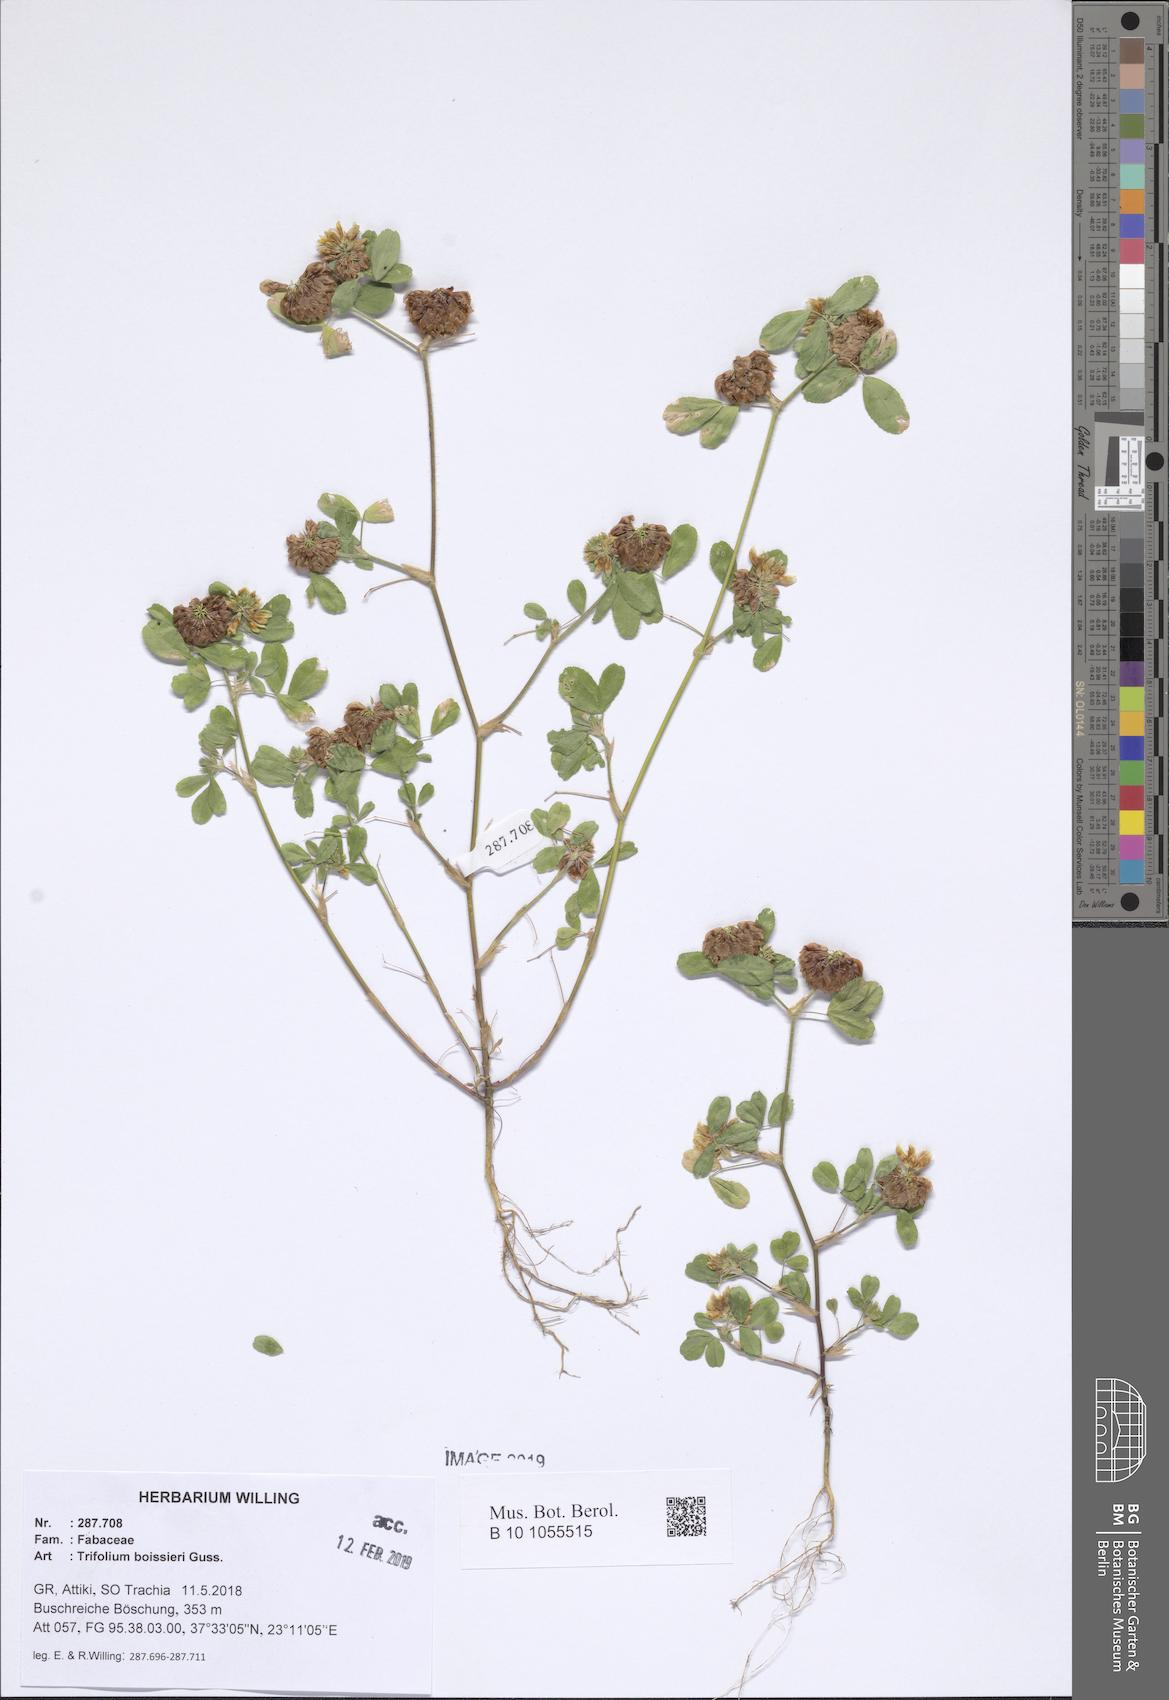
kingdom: Plantae
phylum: Tracheophyta
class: Magnoliopsida
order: Fabales
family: Fabaceae
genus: Trifolium
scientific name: Trifolium boissieri
